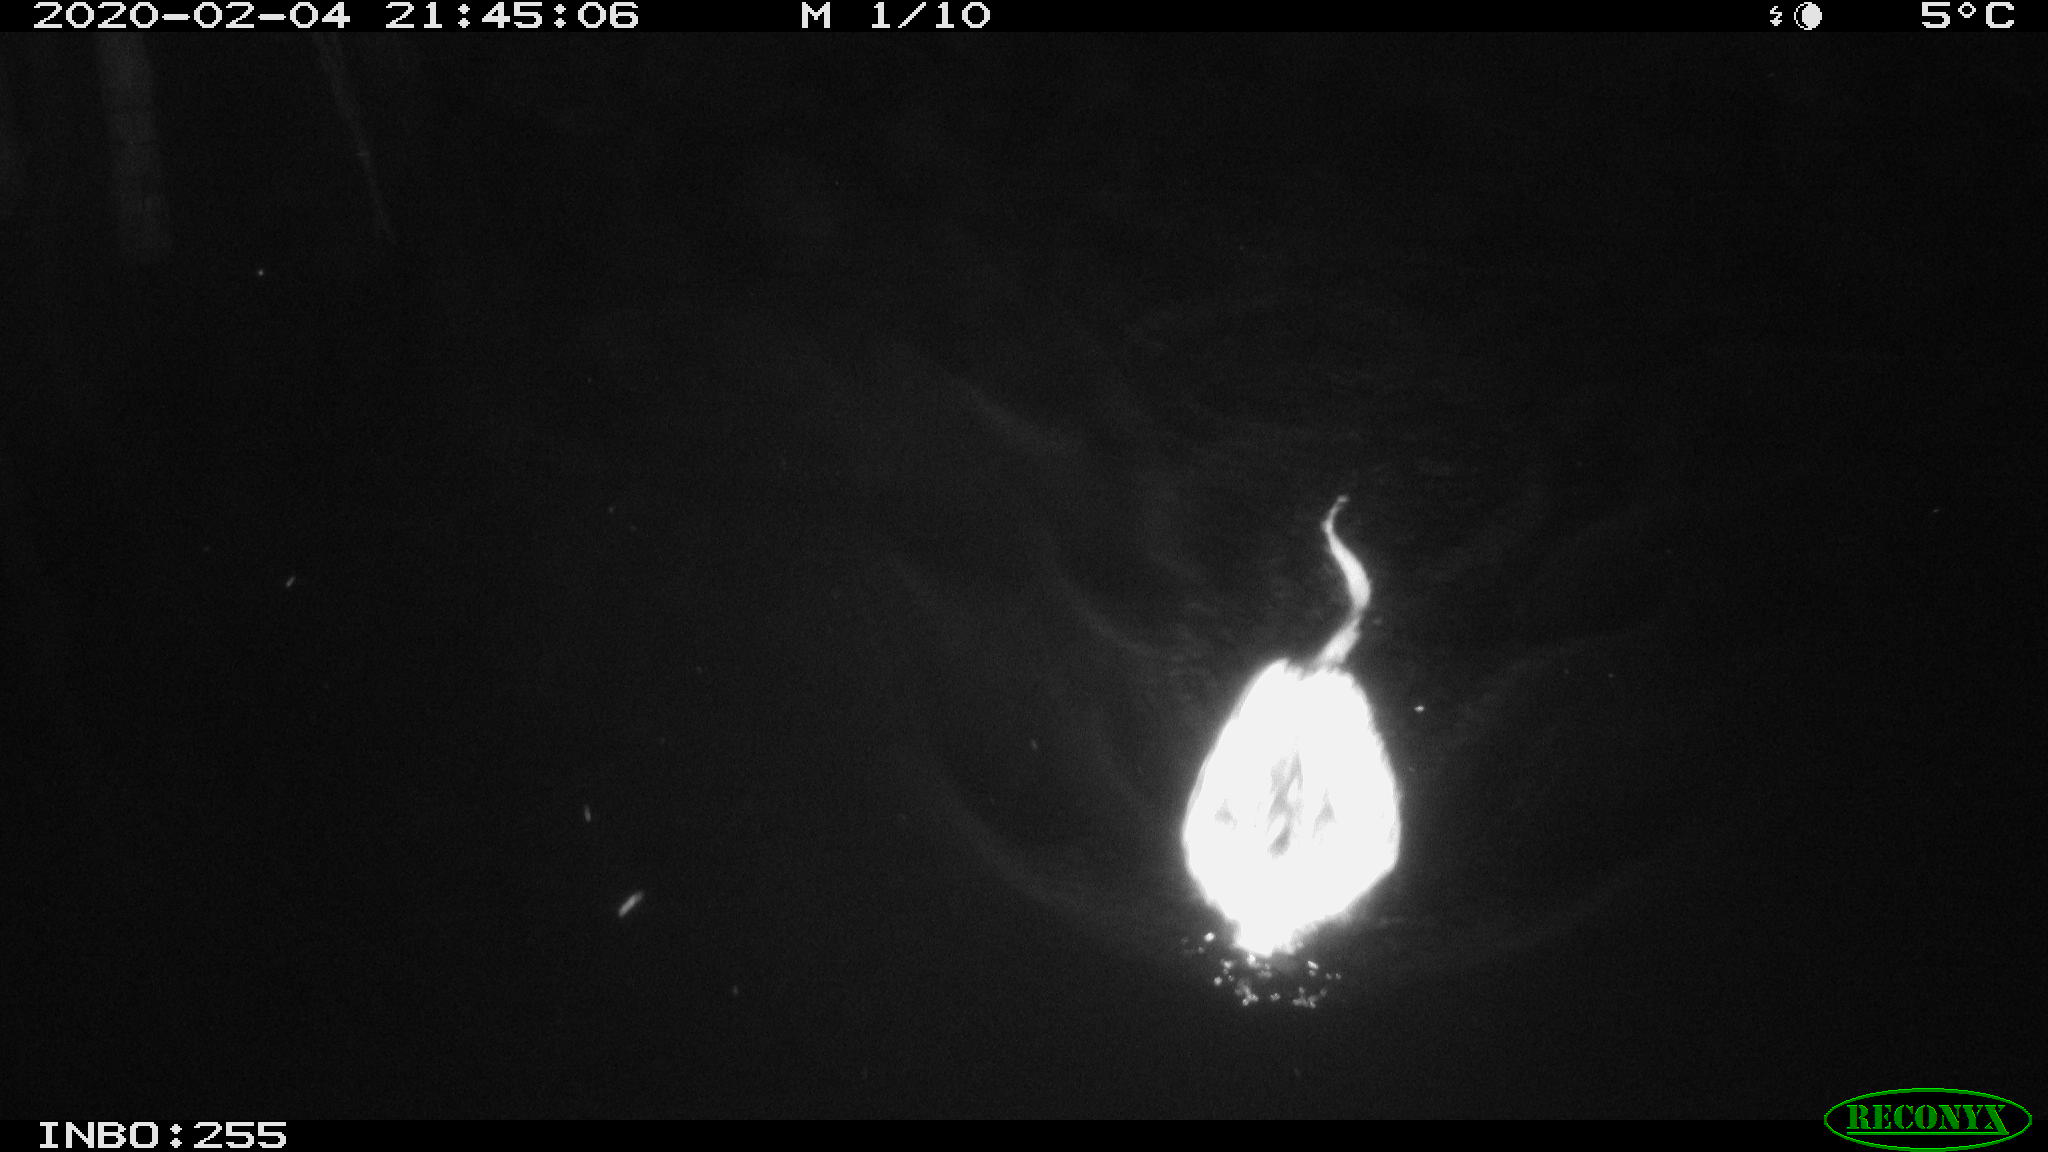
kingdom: Animalia
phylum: Chordata
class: Mammalia
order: Rodentia
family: Cricetidae
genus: Ondatra
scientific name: Ondatra zibethicus
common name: Muskrat
